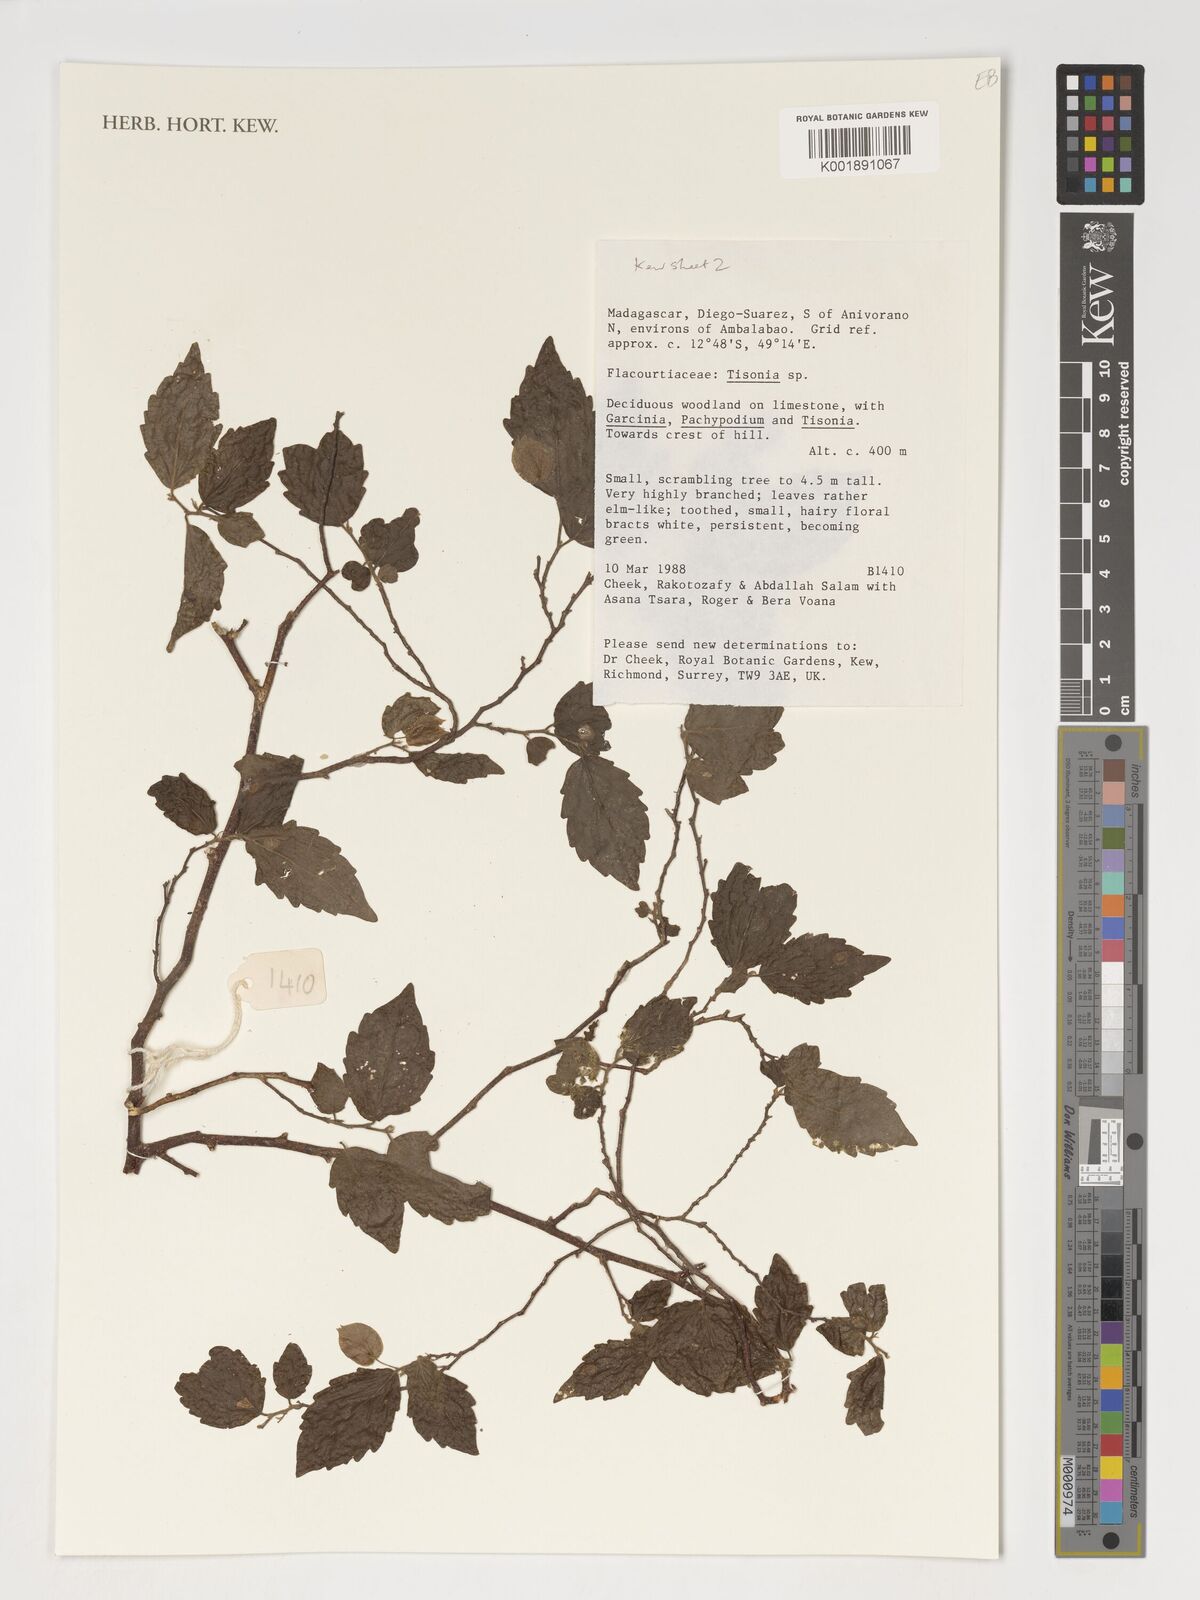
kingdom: Plantae
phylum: Tracheophyta
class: Magnoliopsida
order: Malpighiales
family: Salicaceae
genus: Tisonia
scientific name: Tisonia
